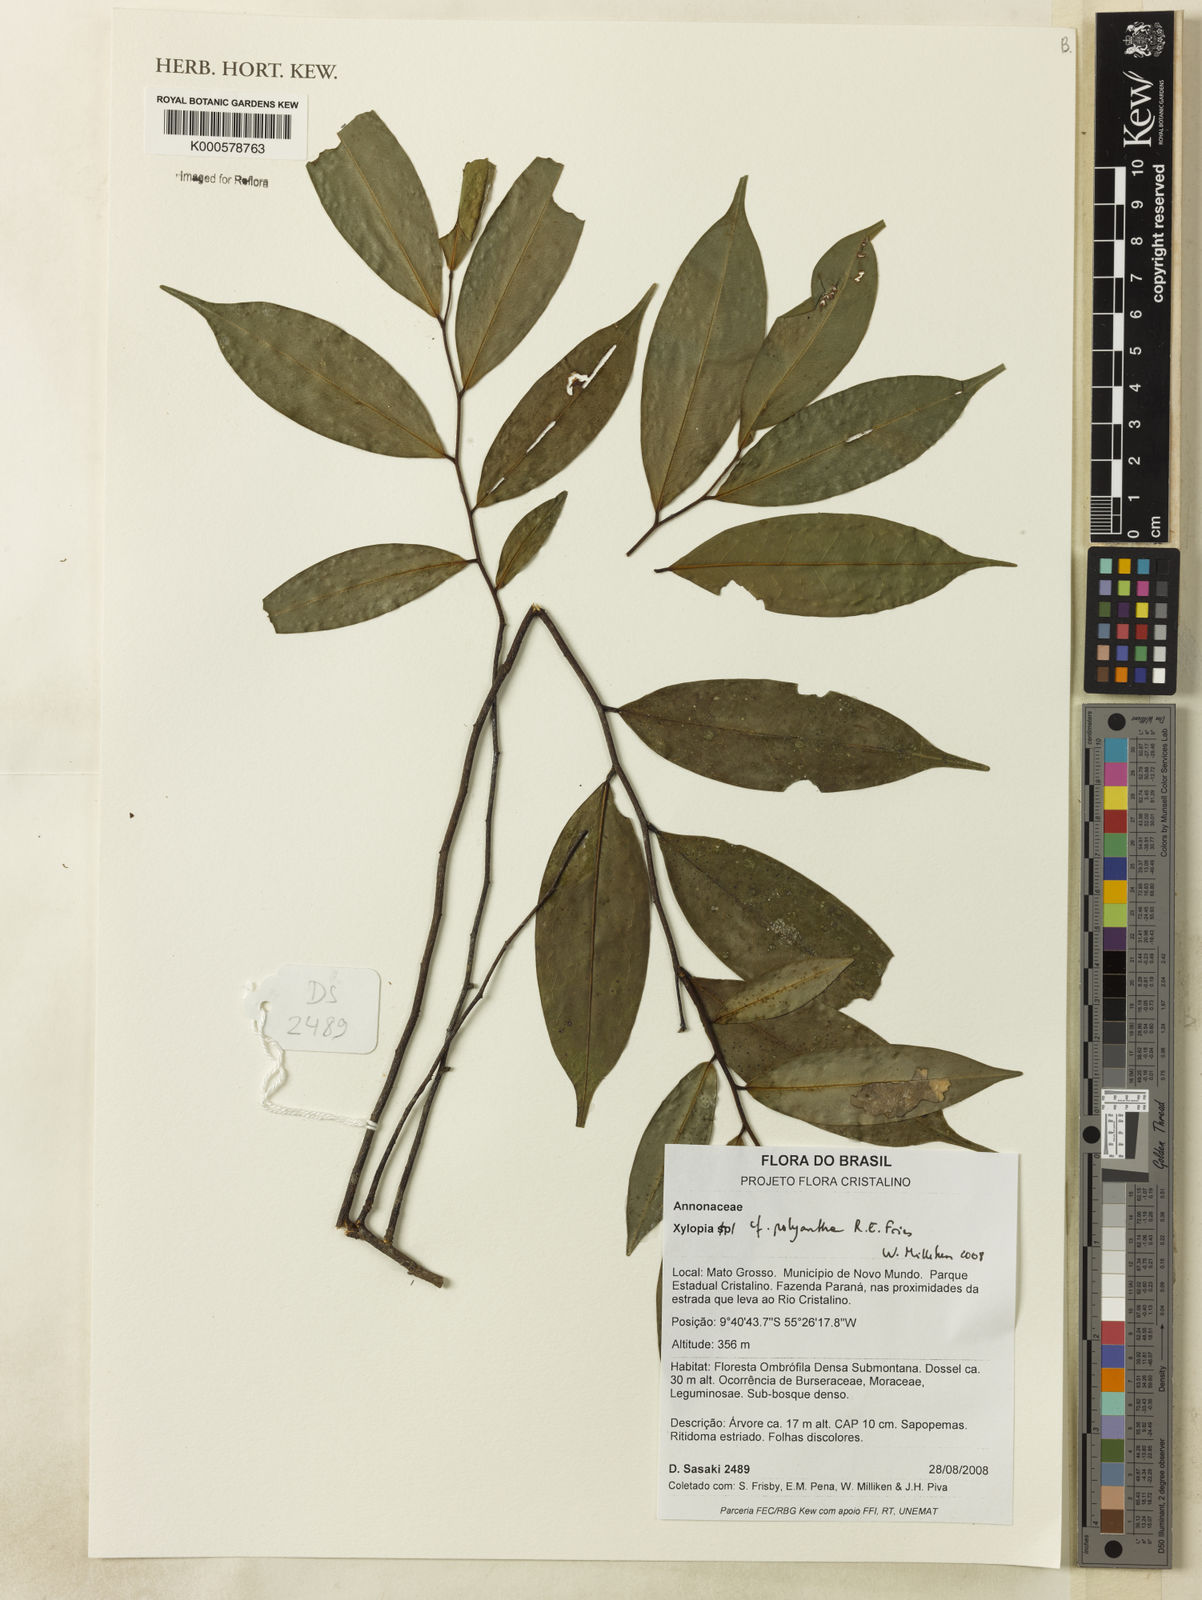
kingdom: Plantae
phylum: Tracheophyta
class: Magnoliopsida
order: Magnoliales
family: Annonaceae
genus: Xylopia
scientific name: Xylopia polyantha
